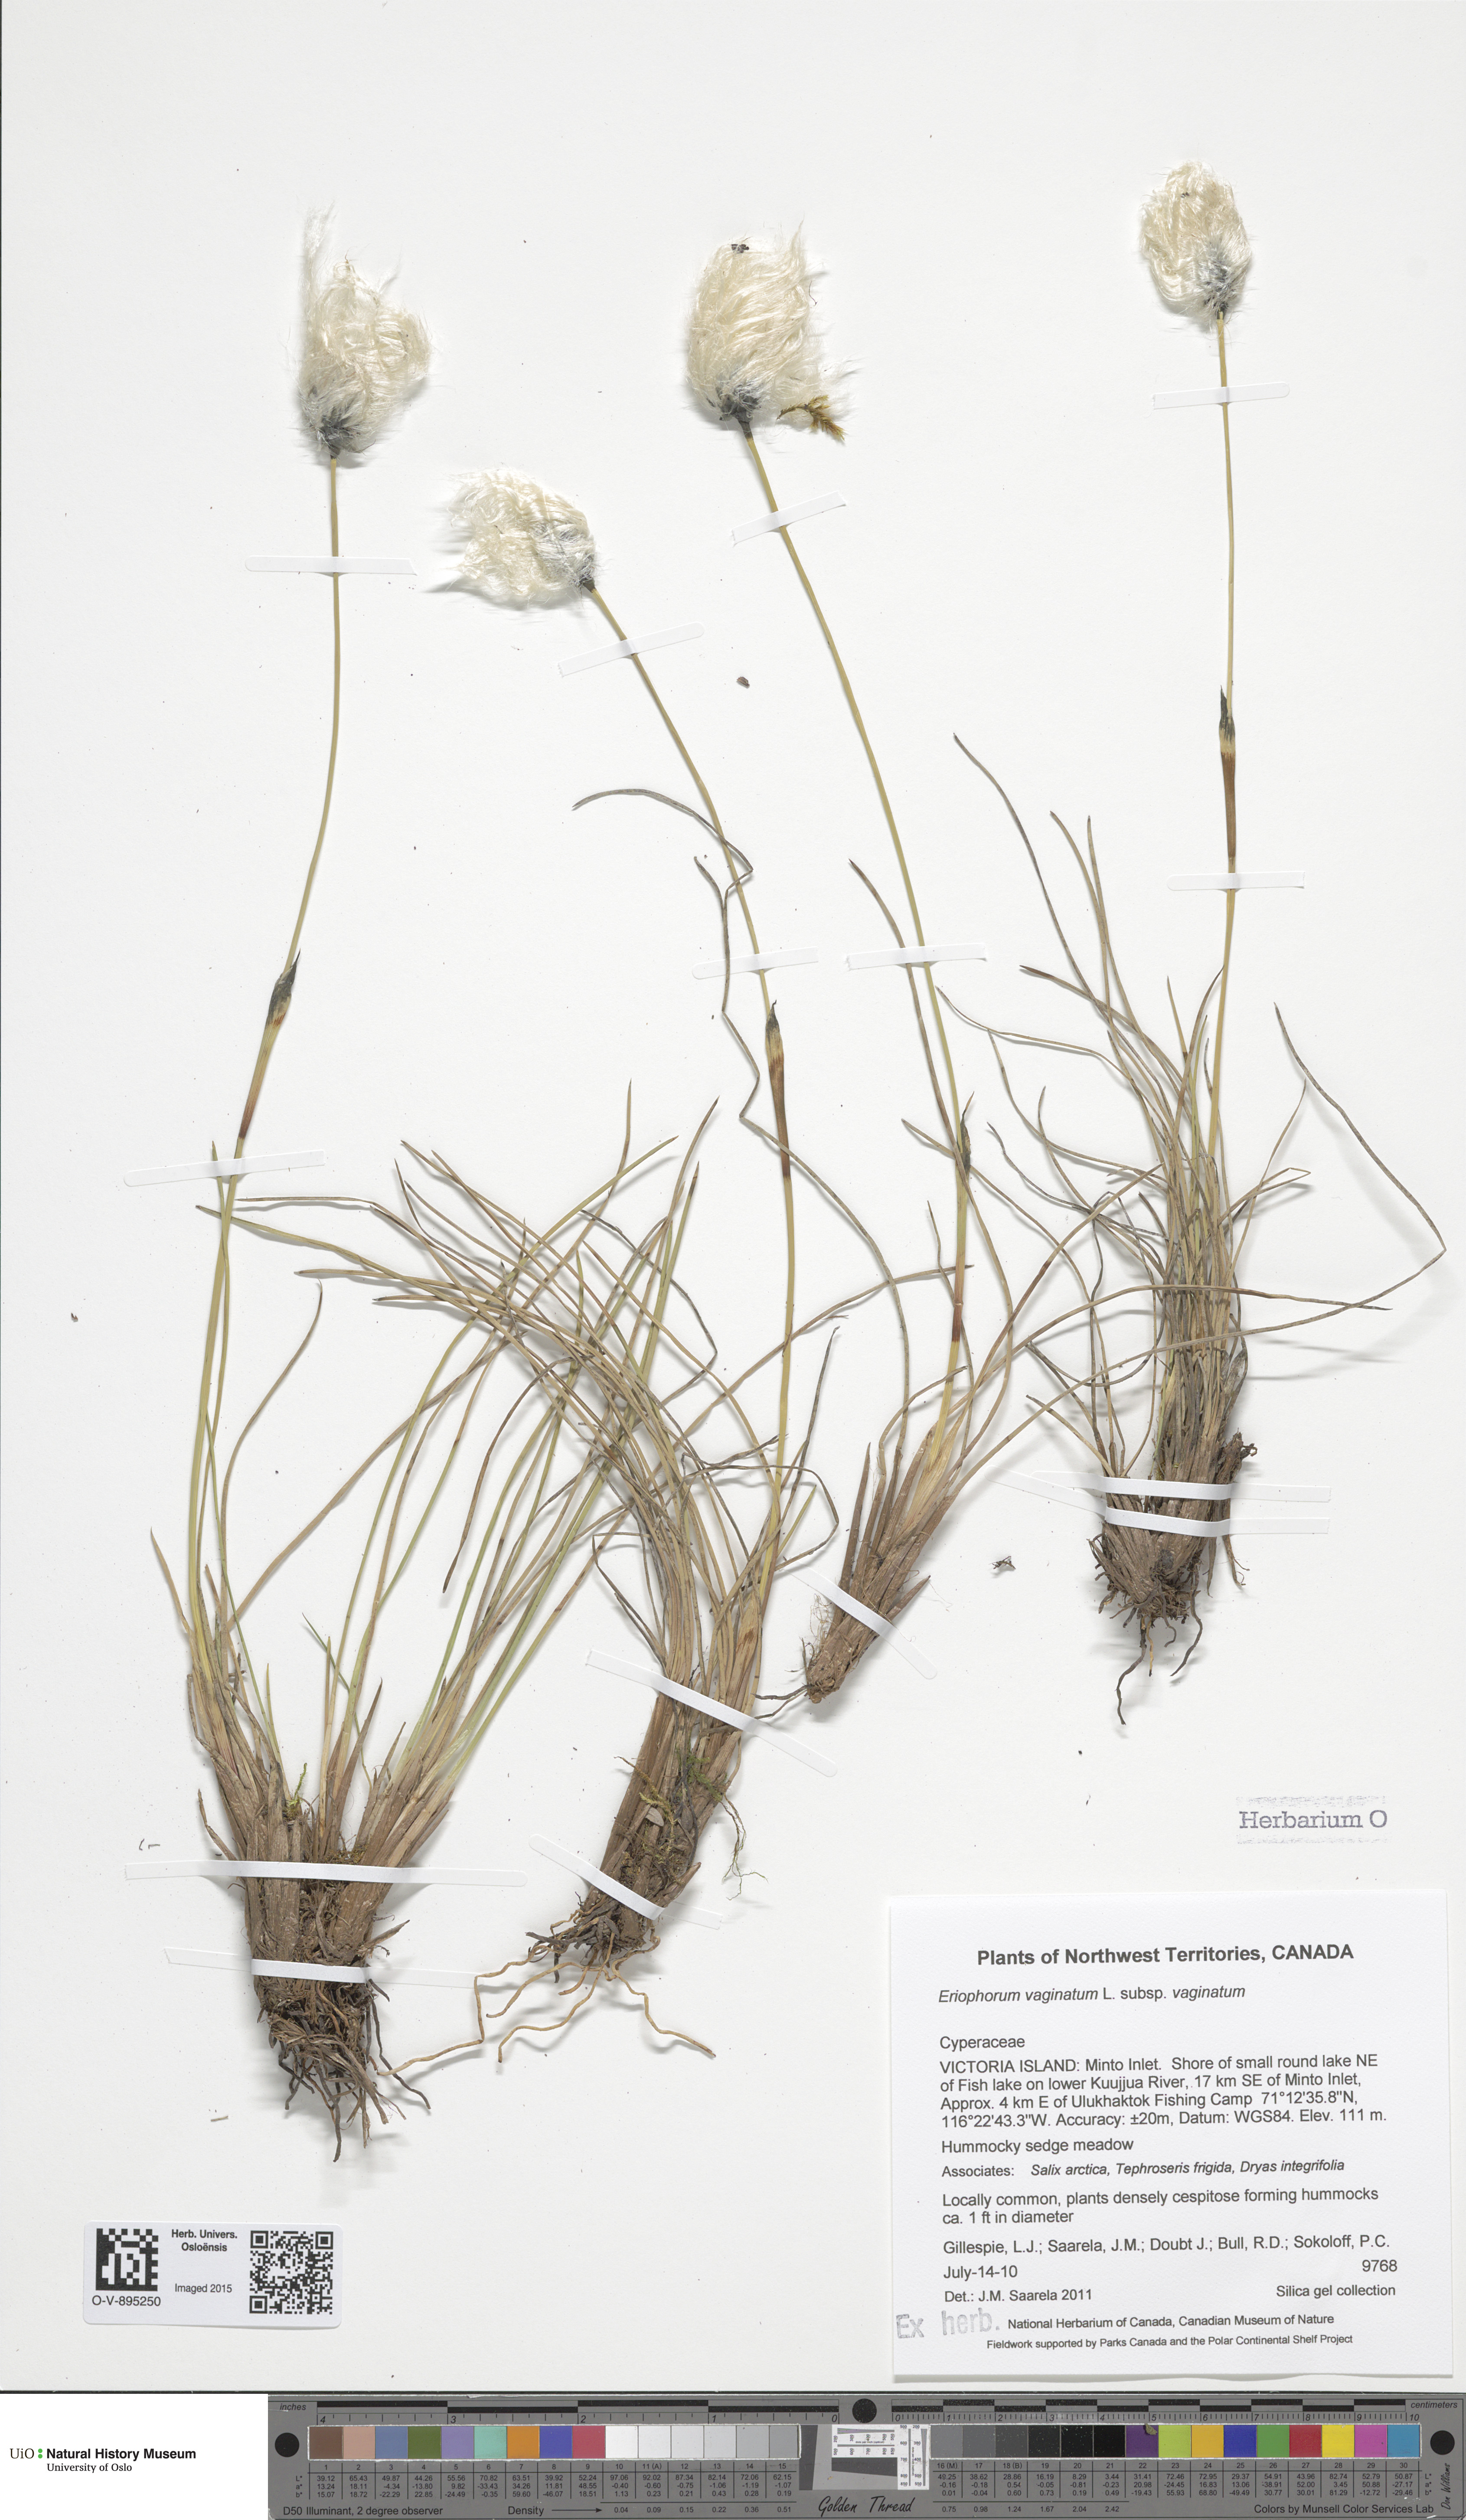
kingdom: Plantae
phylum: Tracheophyta
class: Liliopsida
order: Poales
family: Cyperaceae
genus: Eriophorum
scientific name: Eriophorum vaginatum
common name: Hare's-tail cottongrass
